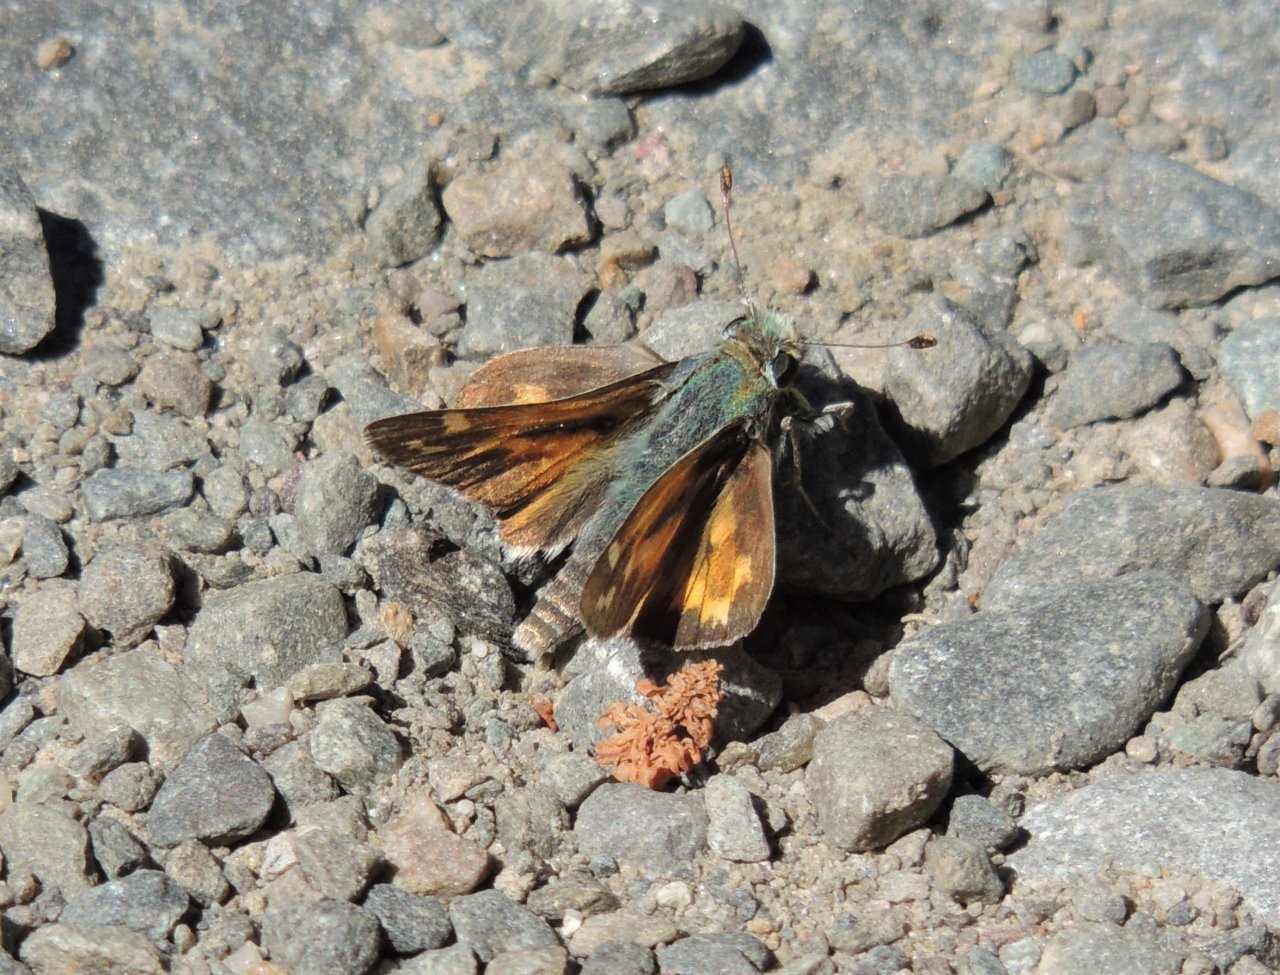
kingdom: Animalia
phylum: Arthropoda
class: Insecta
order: Lepidoptera
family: Hesperiidae
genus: Hesperia
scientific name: Hesperia juba
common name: Juba Skipper
